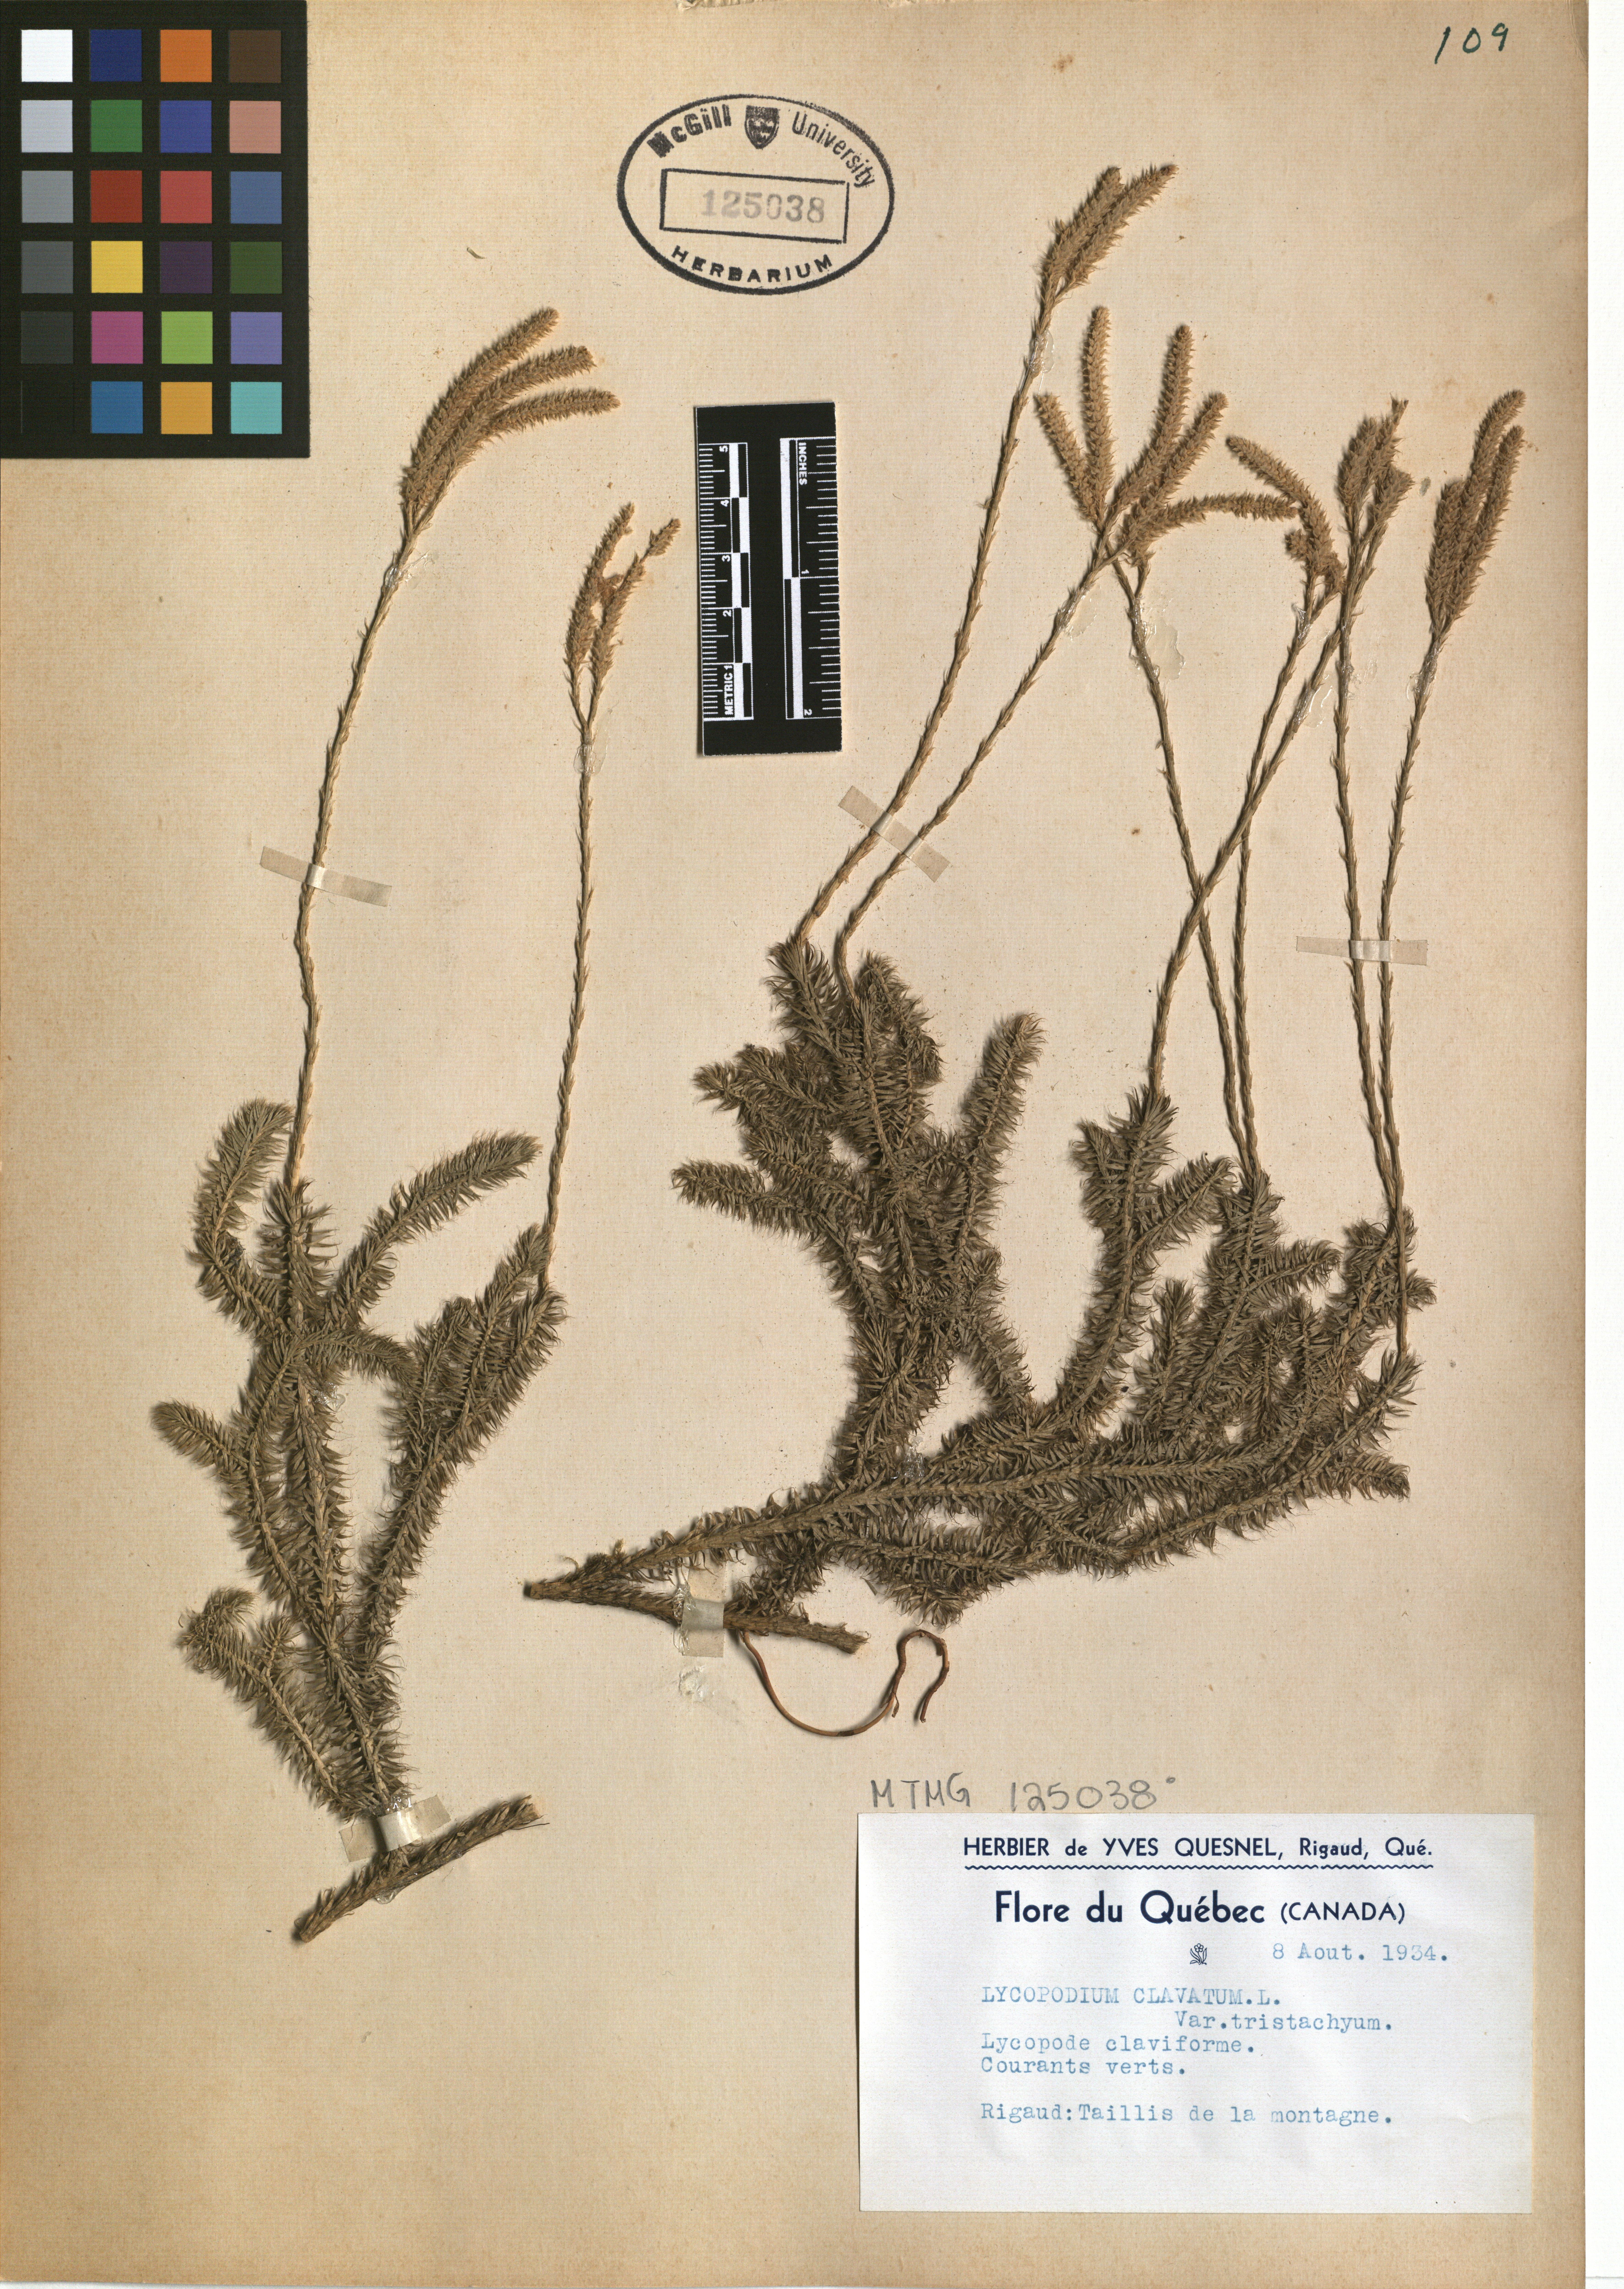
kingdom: Plantae
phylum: Tracheophyta
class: Lycopodiopsida
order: Lycopodiales
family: Lycopodiaceae
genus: Lycopodium
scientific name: Lycopodium clavatum
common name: Stag's-horn clubmoss
